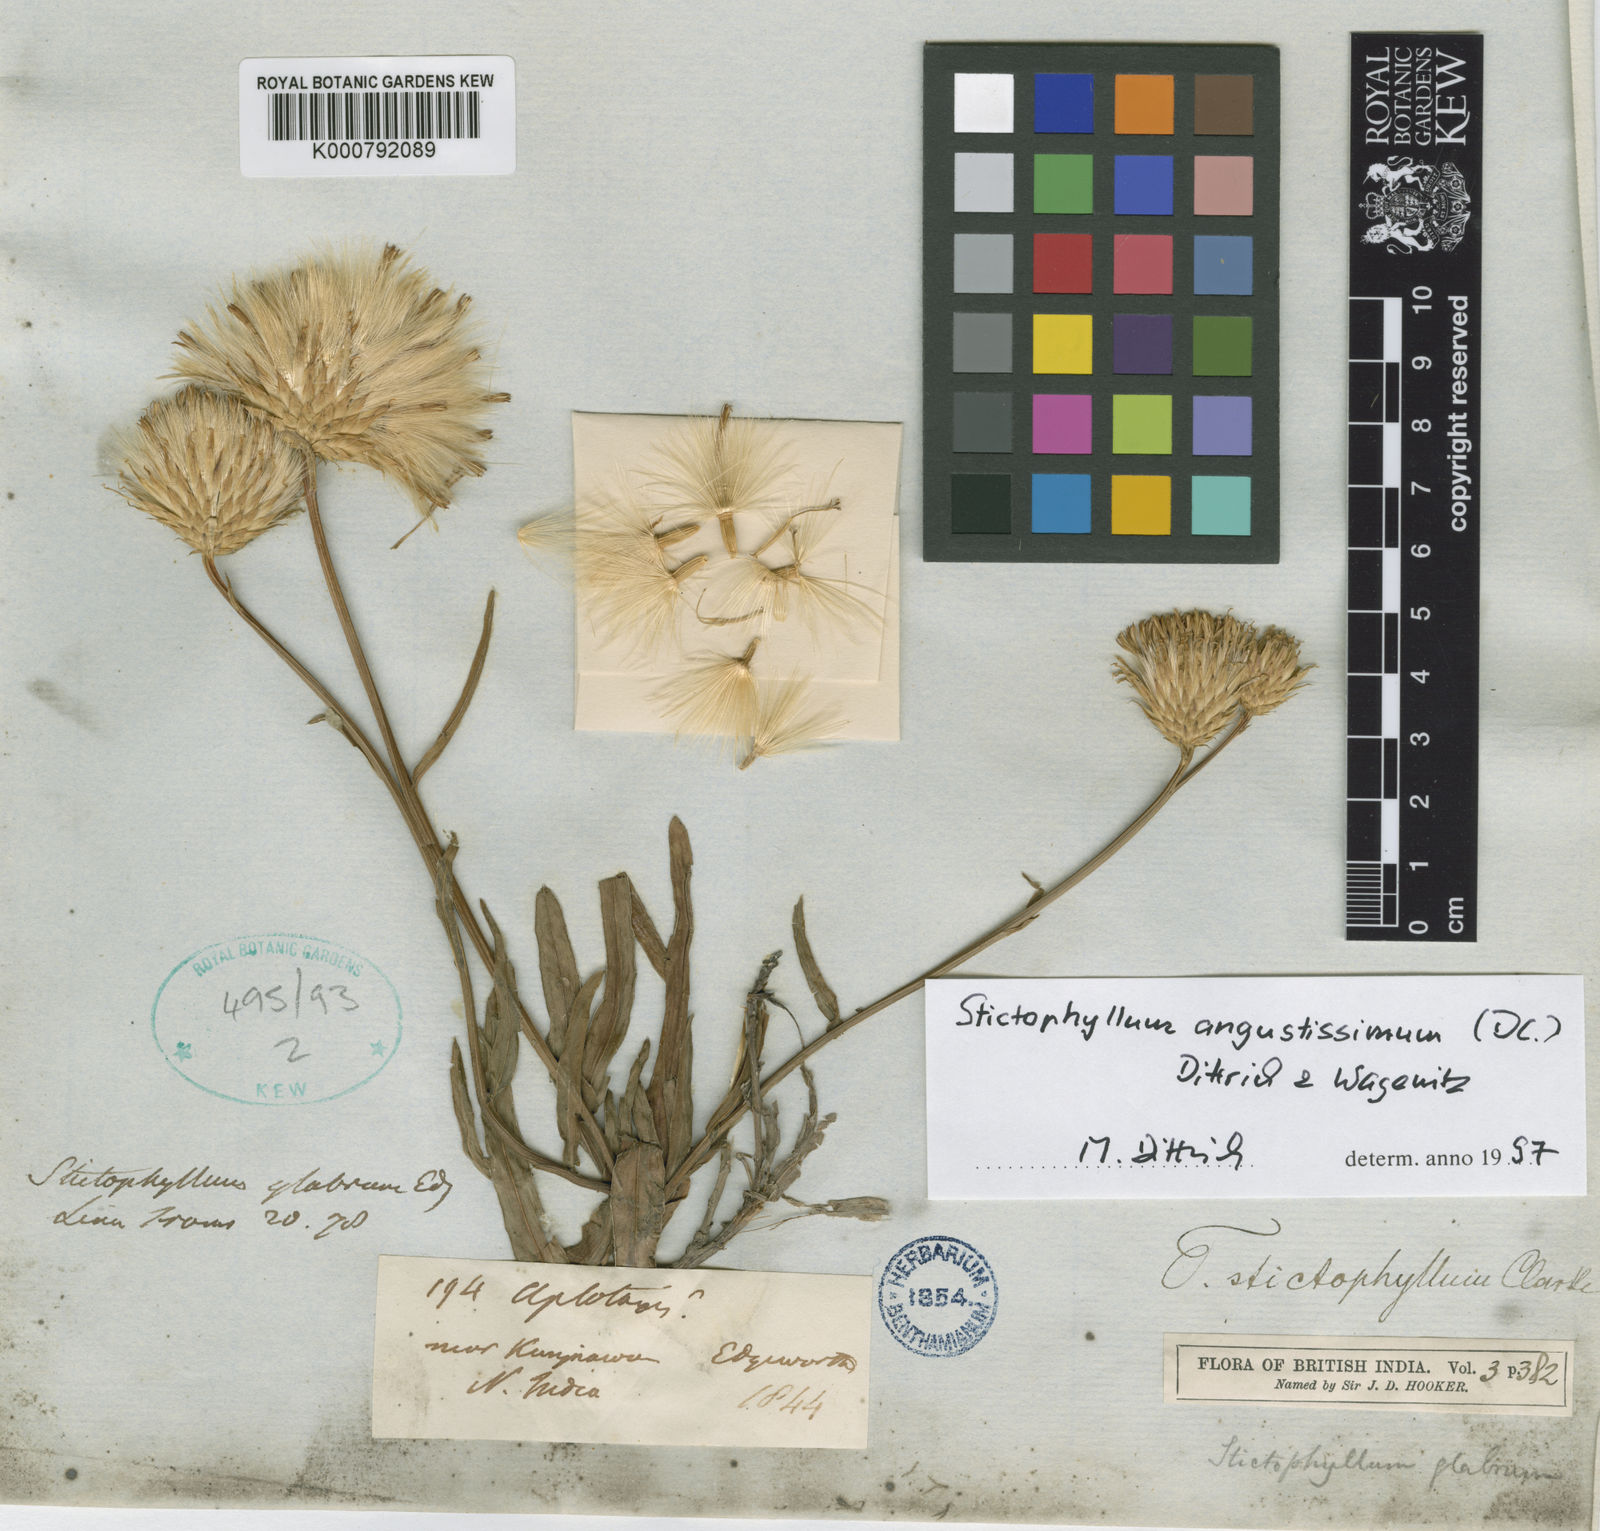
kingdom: Plantae
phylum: Tracheophyta
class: Magnoliopsida
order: Asterales
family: Asteraceae
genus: Tricholepis
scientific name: Tricholepis stictophyllum
